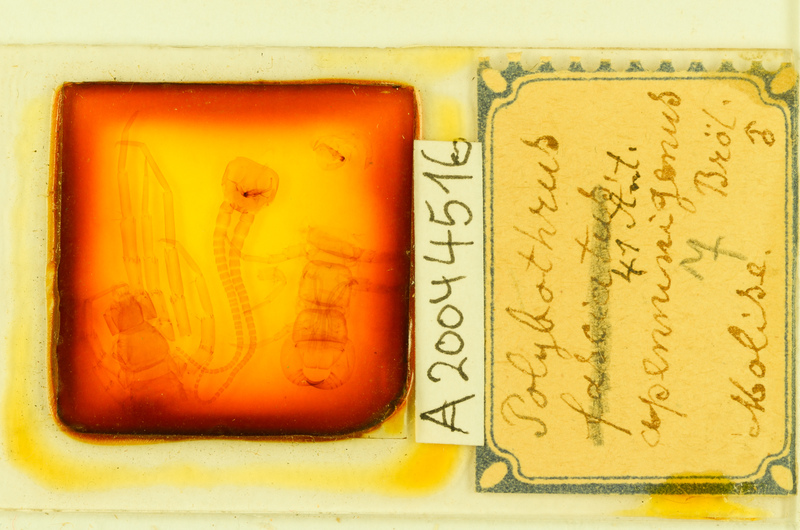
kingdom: Animalia
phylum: Arthropoda
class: Chilopoda
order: Lithobiomorpha
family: Lithobiidae
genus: Polybothrus
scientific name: Polybothrus
